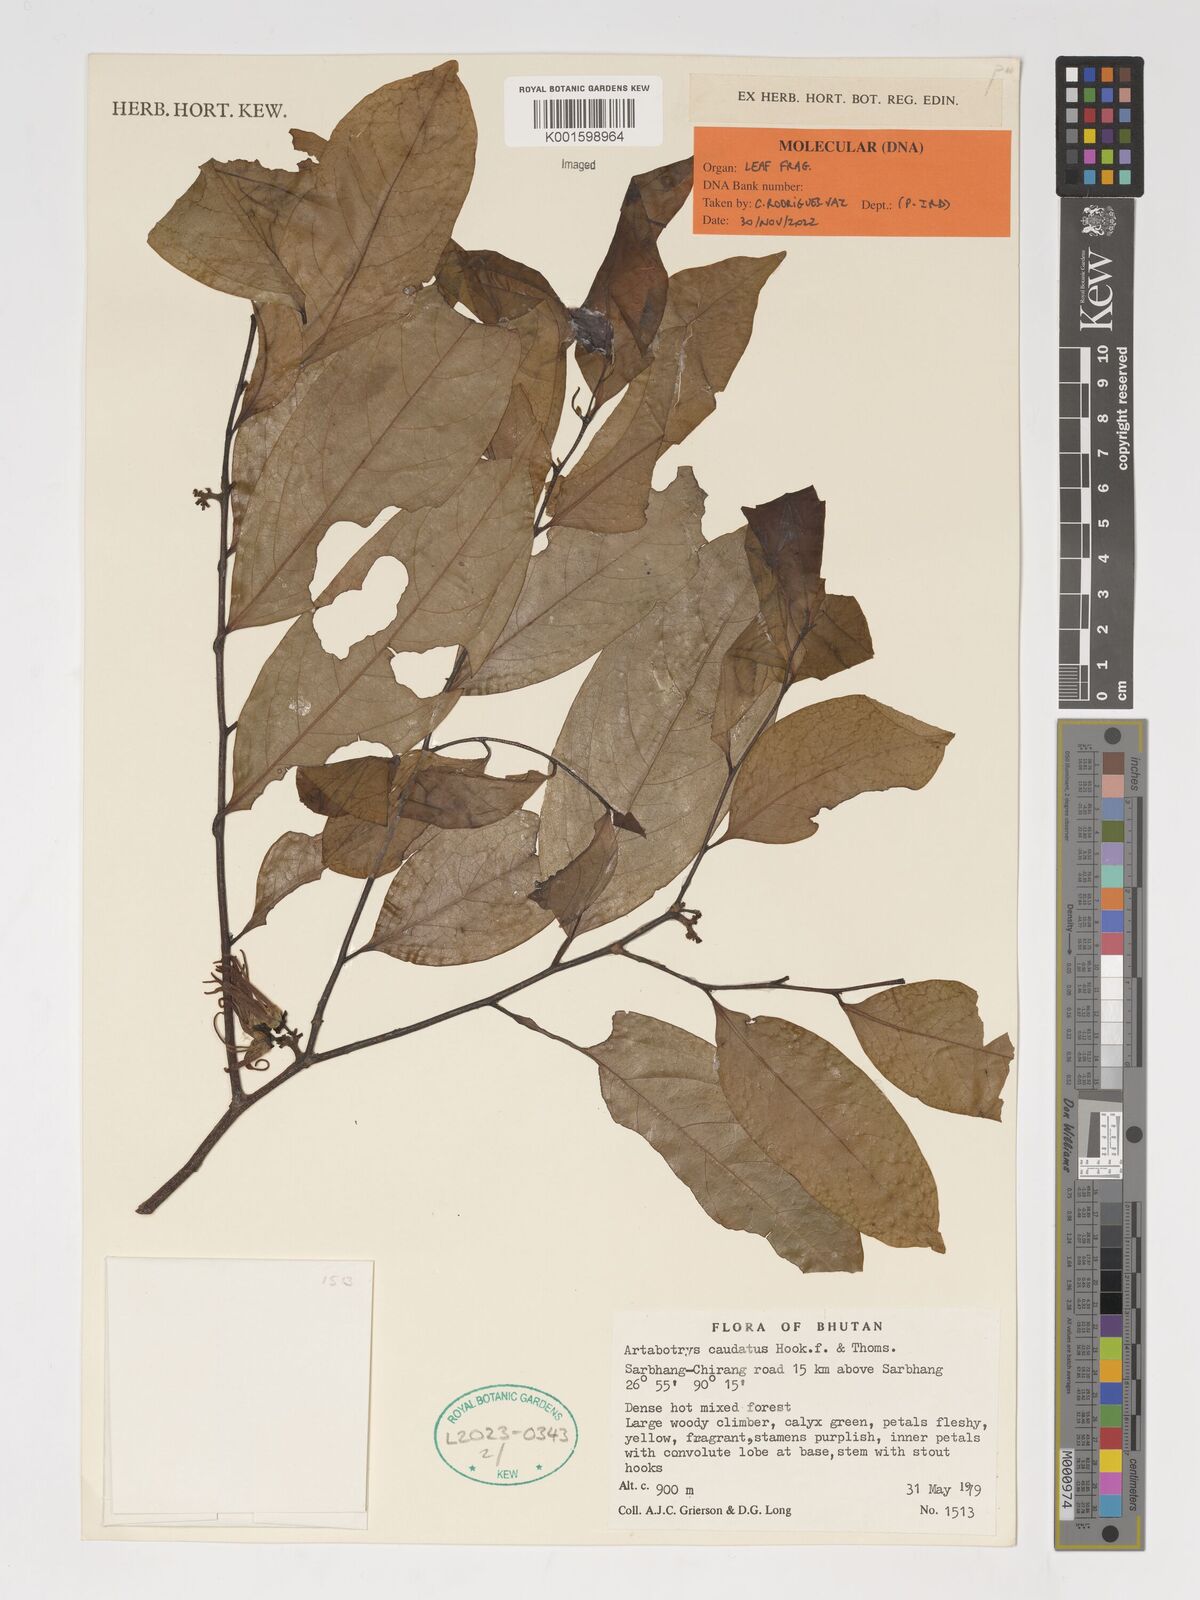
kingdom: Plantae
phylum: Tracheophyta
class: Magnoliopsida
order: Magnoliales
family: Annonaceae
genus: Artabotrys
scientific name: Artabotrys caudatus
